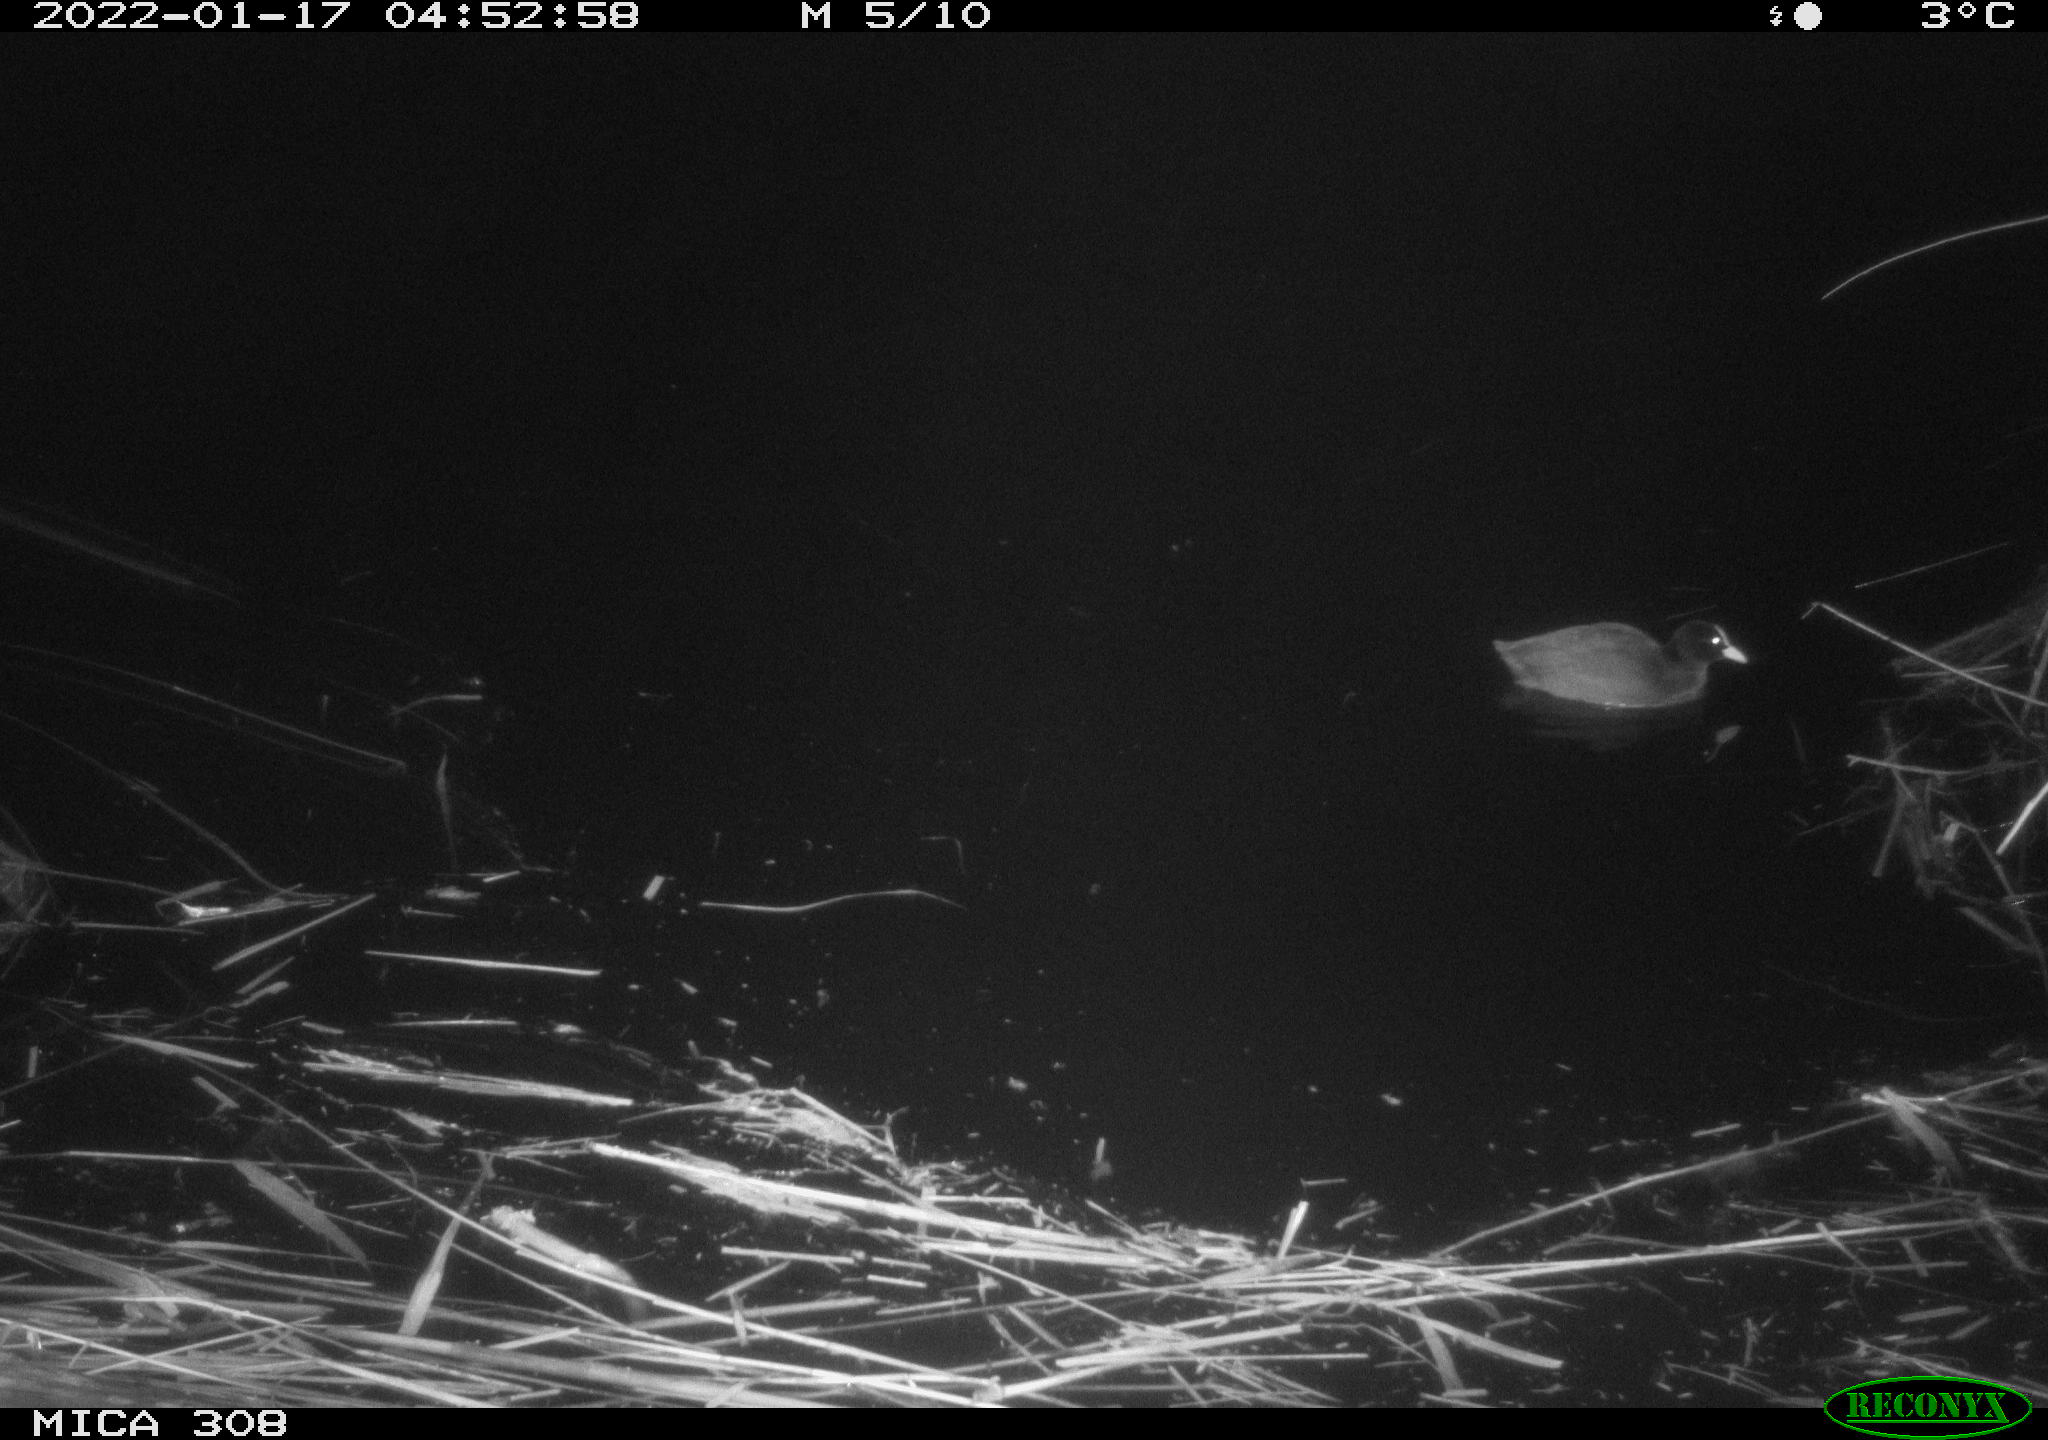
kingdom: Animalia
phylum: Chordata
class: Aves
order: Gruiformes
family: Rallidae
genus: Fulica
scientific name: Fulica atra
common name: Eurasian coot
